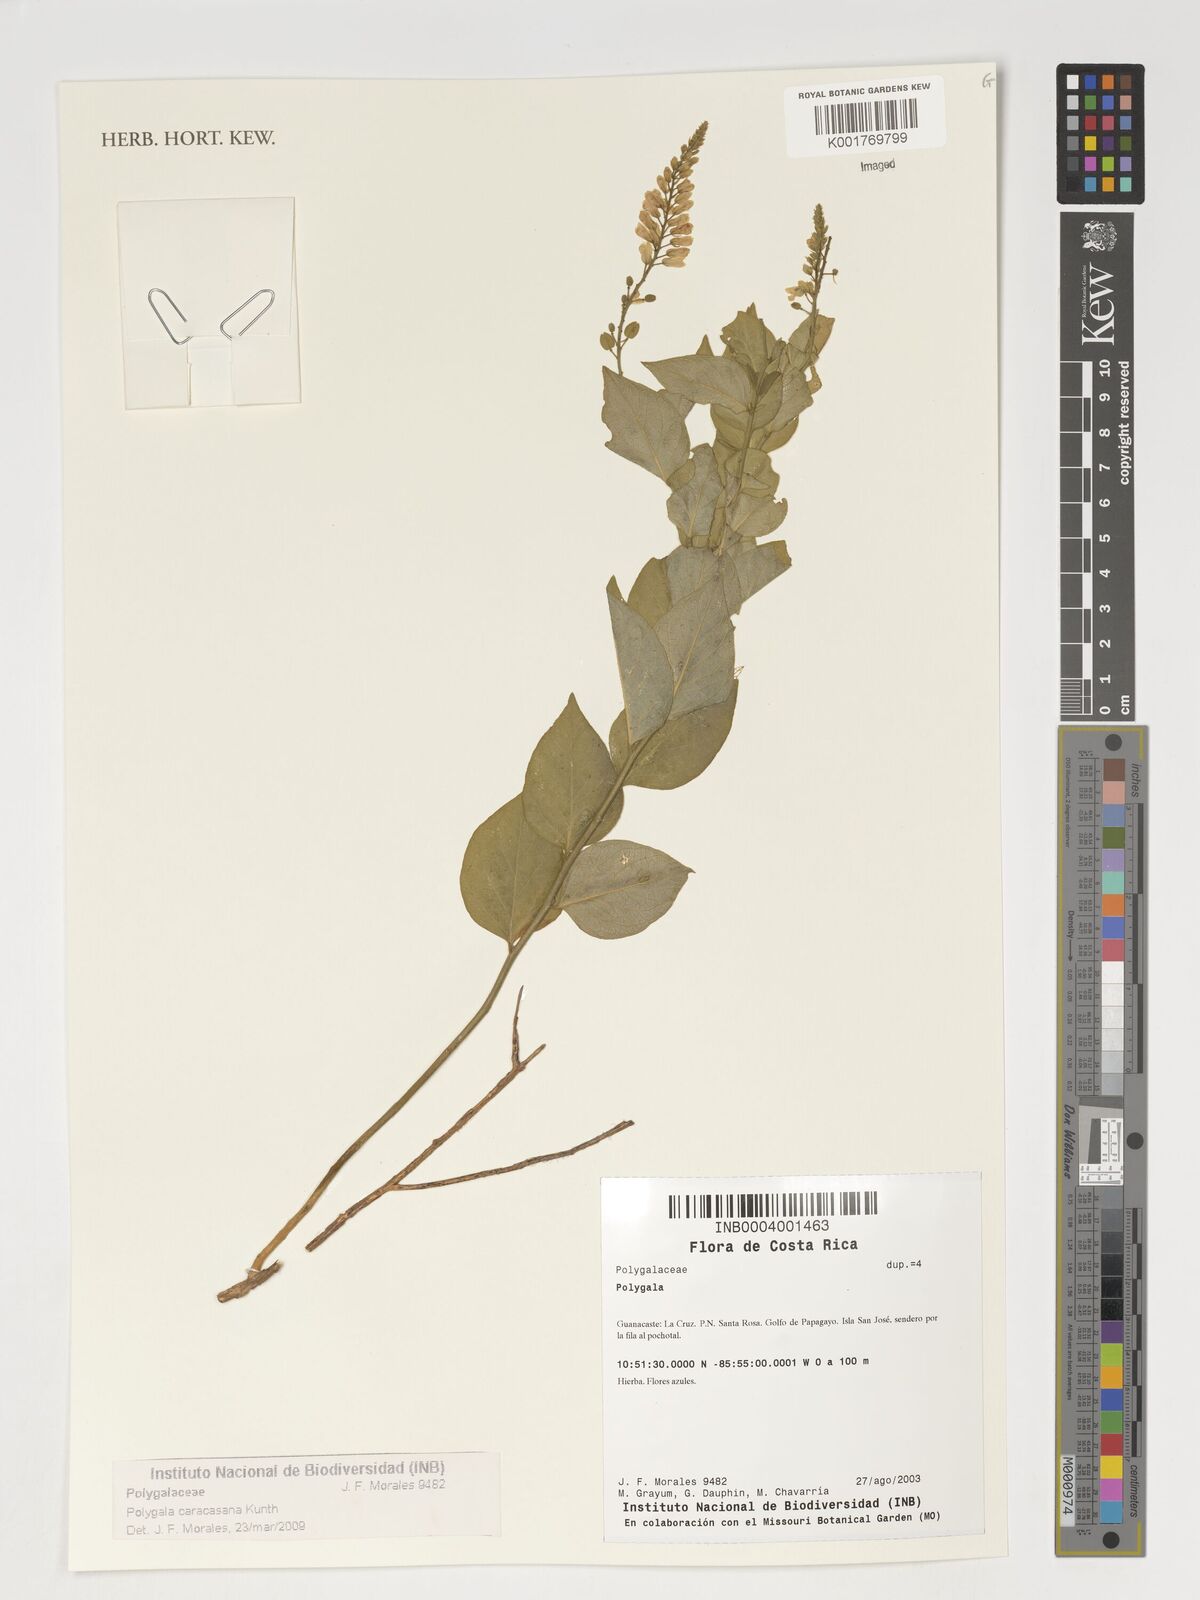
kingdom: Plantae
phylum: Tracheophyta
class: Magnoliopsida
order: Fabales
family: Polygalaceae
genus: Hebecarpa
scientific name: Hebecarpa caracasana
